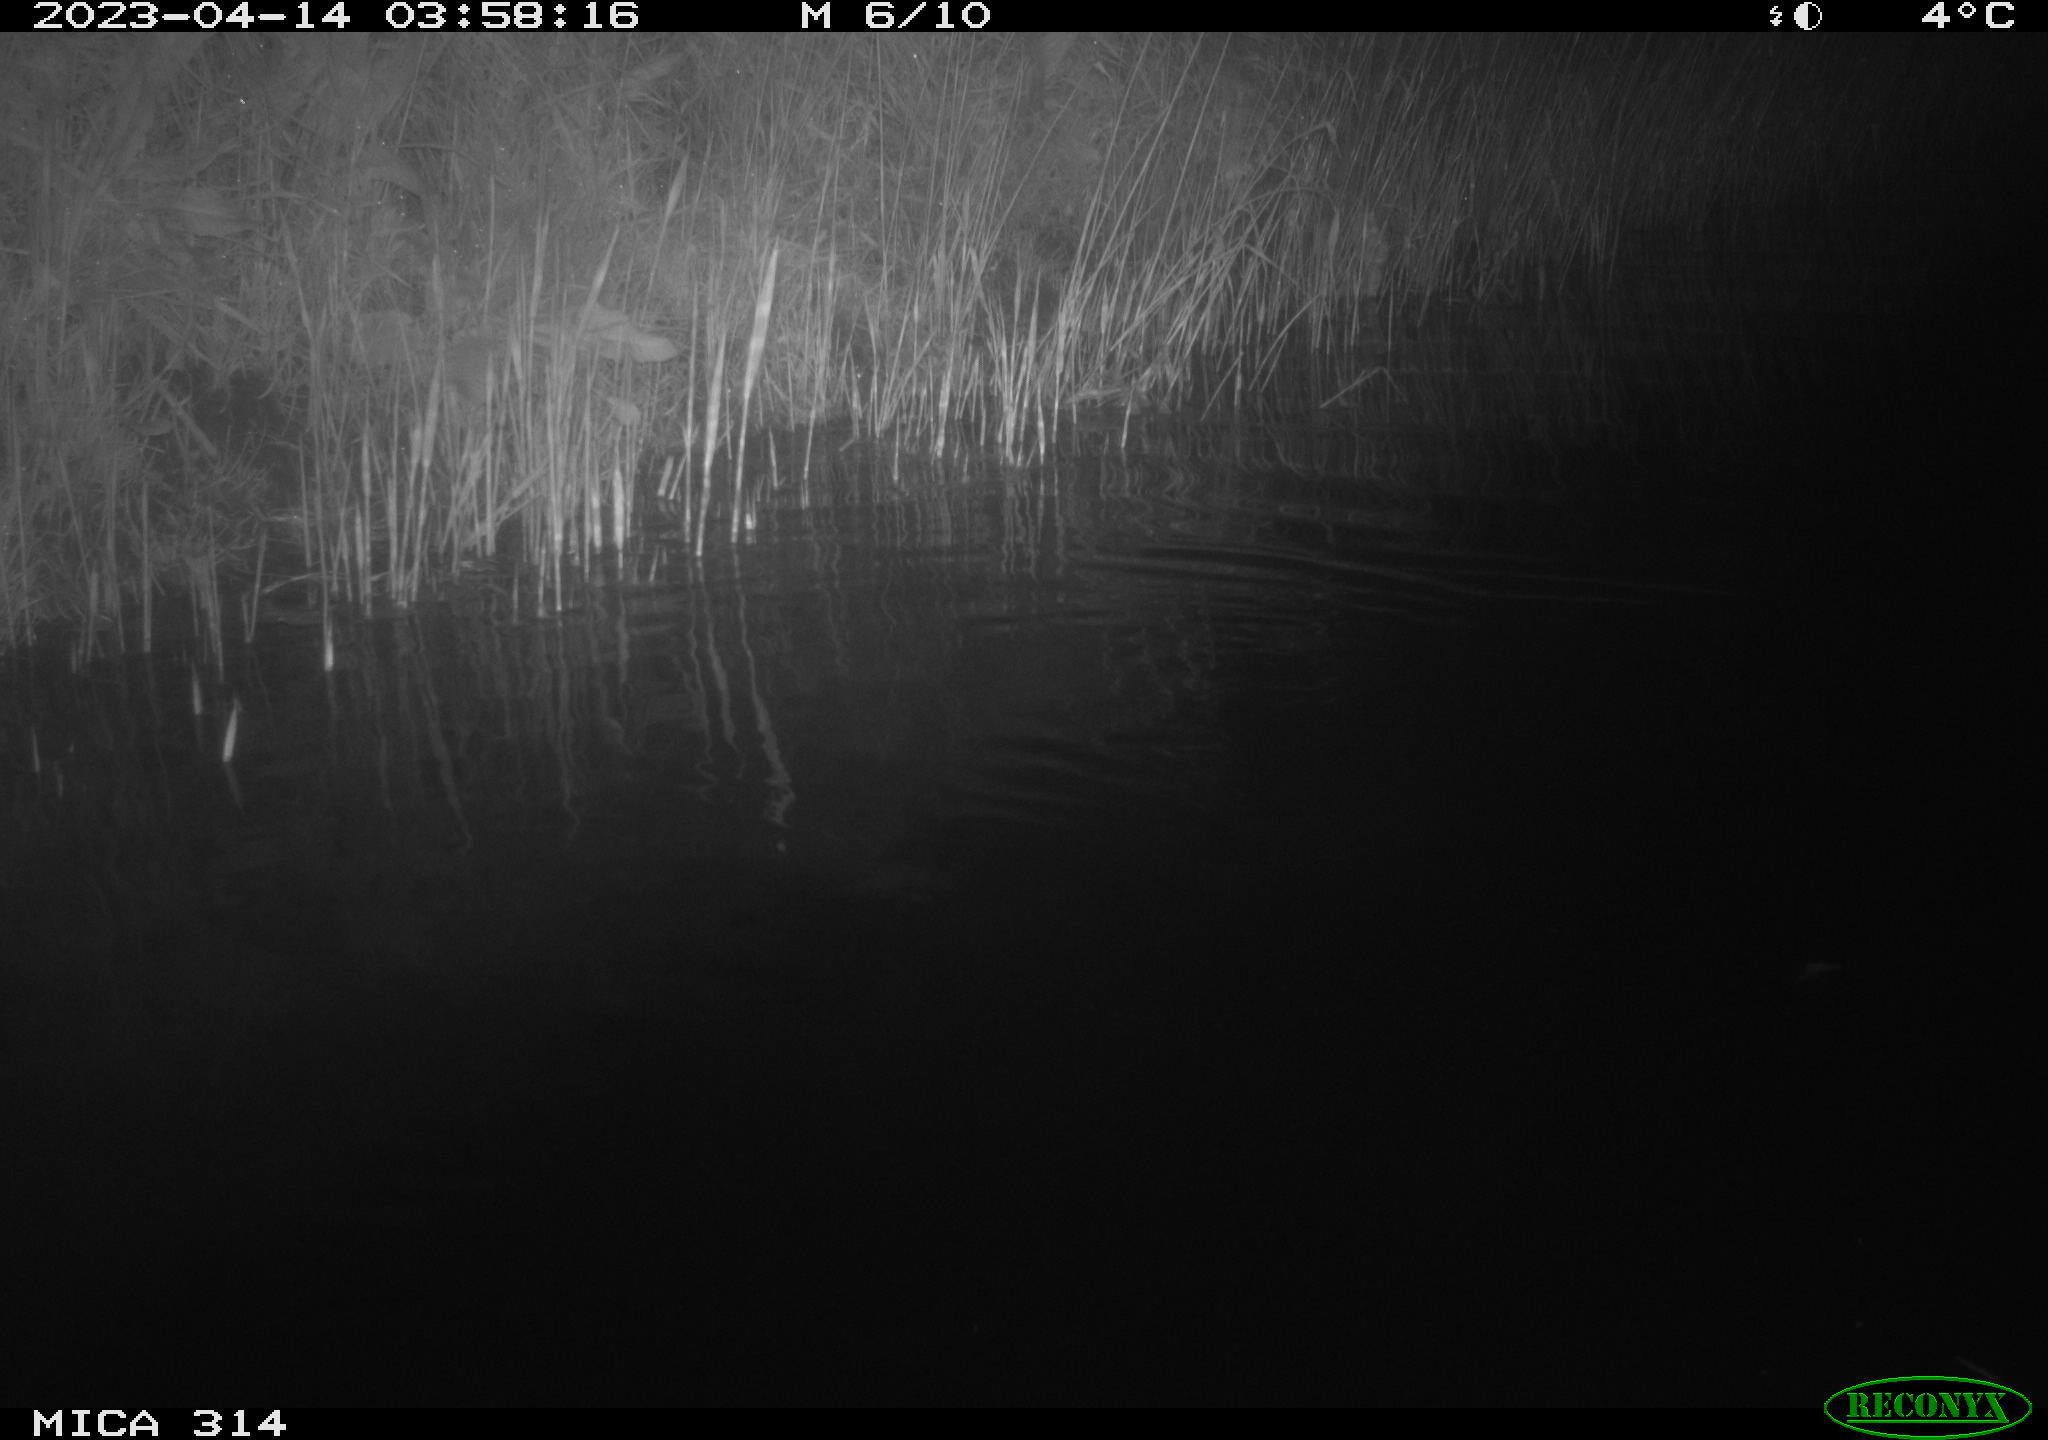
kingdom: Animalia
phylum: Chordata
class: Aves
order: Anseriformes
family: Anatidae
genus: Anas
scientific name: Anas
